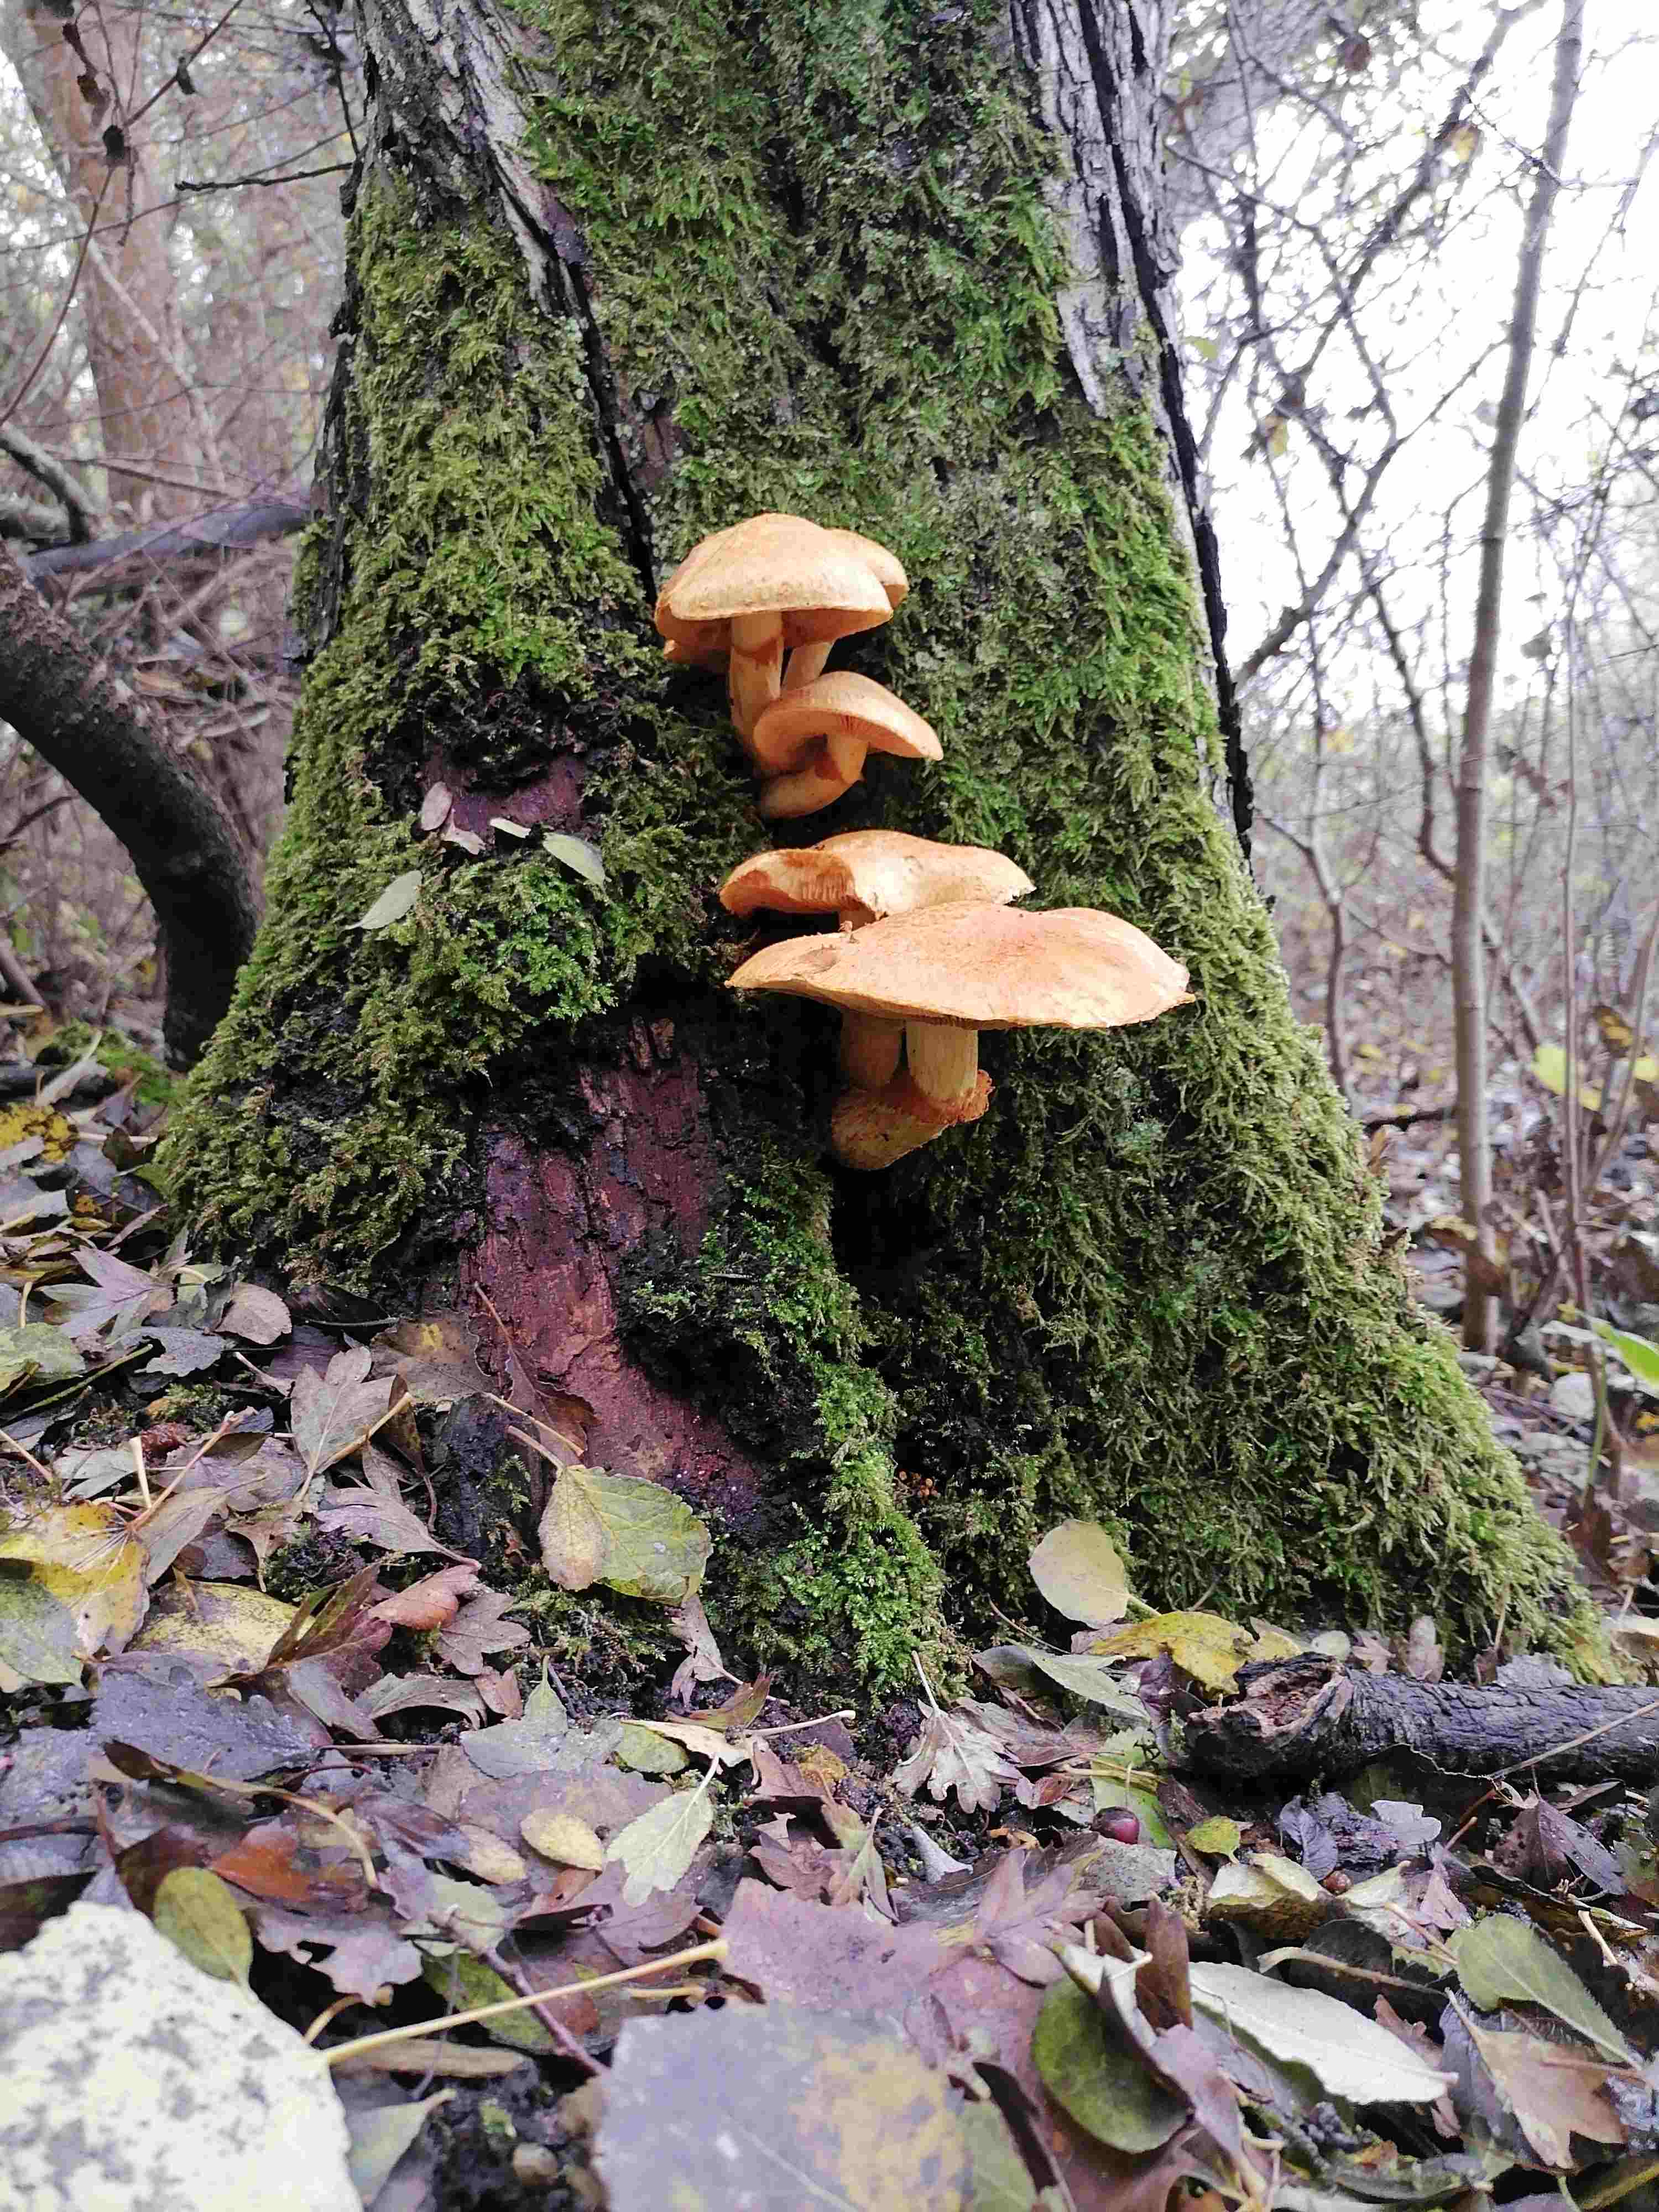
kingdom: Fungi
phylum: Basidiomycota
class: Agaricomycetes
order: Agaricales
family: Hymenogastraceae
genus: Gymnopilus
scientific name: Gymnopilus spectabilis
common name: fibret flammehat
